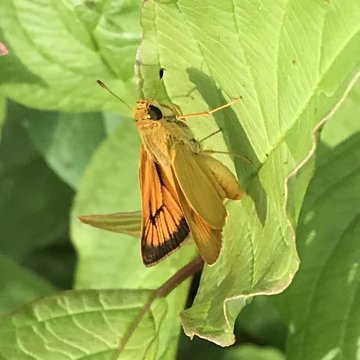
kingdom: Animalia
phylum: Arthropoda
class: Insecta
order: Lepidoptera
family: Hesperiidae
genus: Atrytone
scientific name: Atrytone delaware
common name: Delaware Skipper
